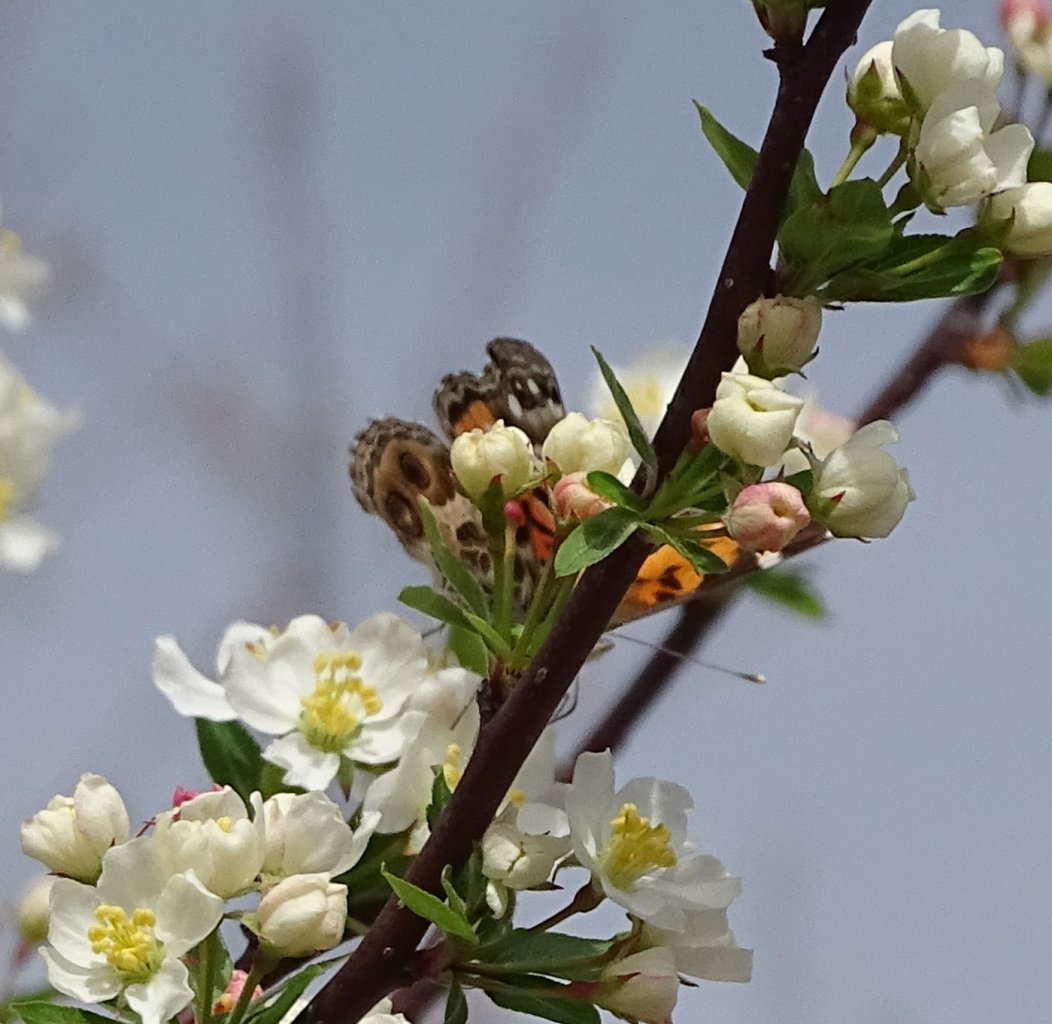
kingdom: Animalia
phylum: Arthropoda
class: Insecta
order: Lepidoptera
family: Nymphalidae
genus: Vanessa
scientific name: Vanessa virginiensis
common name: American Lady
